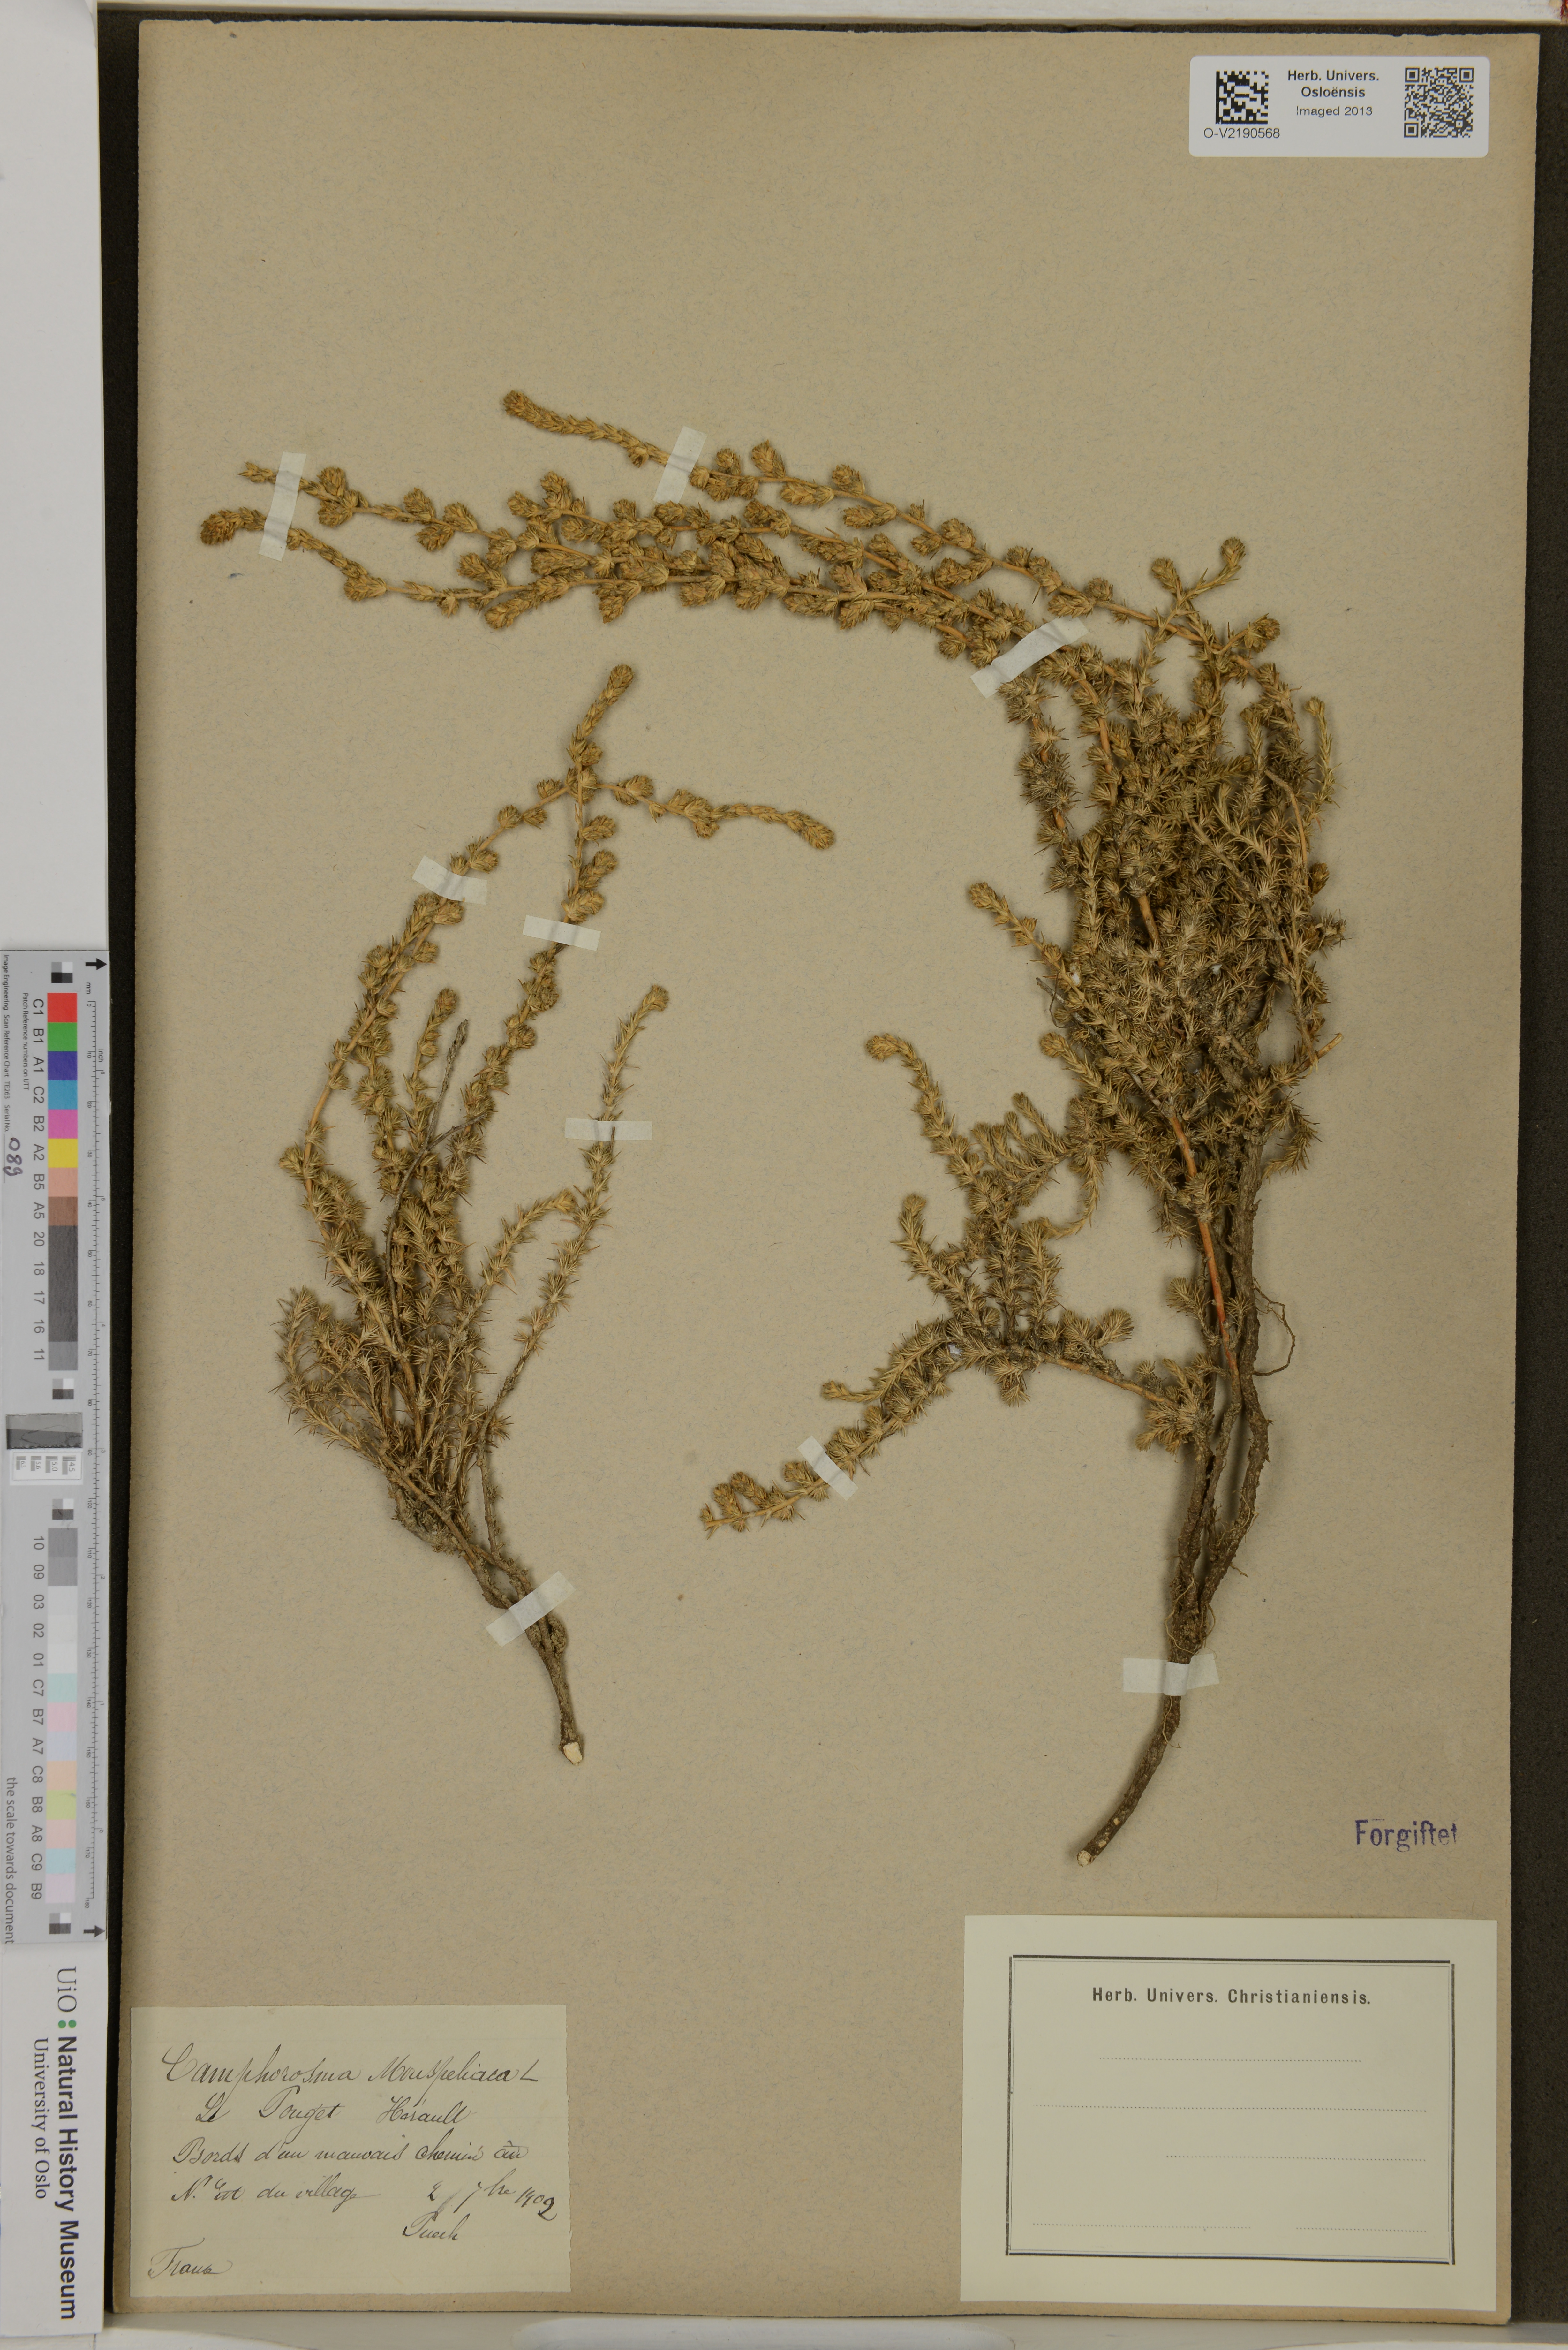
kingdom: Plantae
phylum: Tracheophyta
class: Magnoliopsida
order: Caryophyllales
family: Amaranthaceae
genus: Camphorosma
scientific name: Camphorosma monspeliaca
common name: Camphorfume
